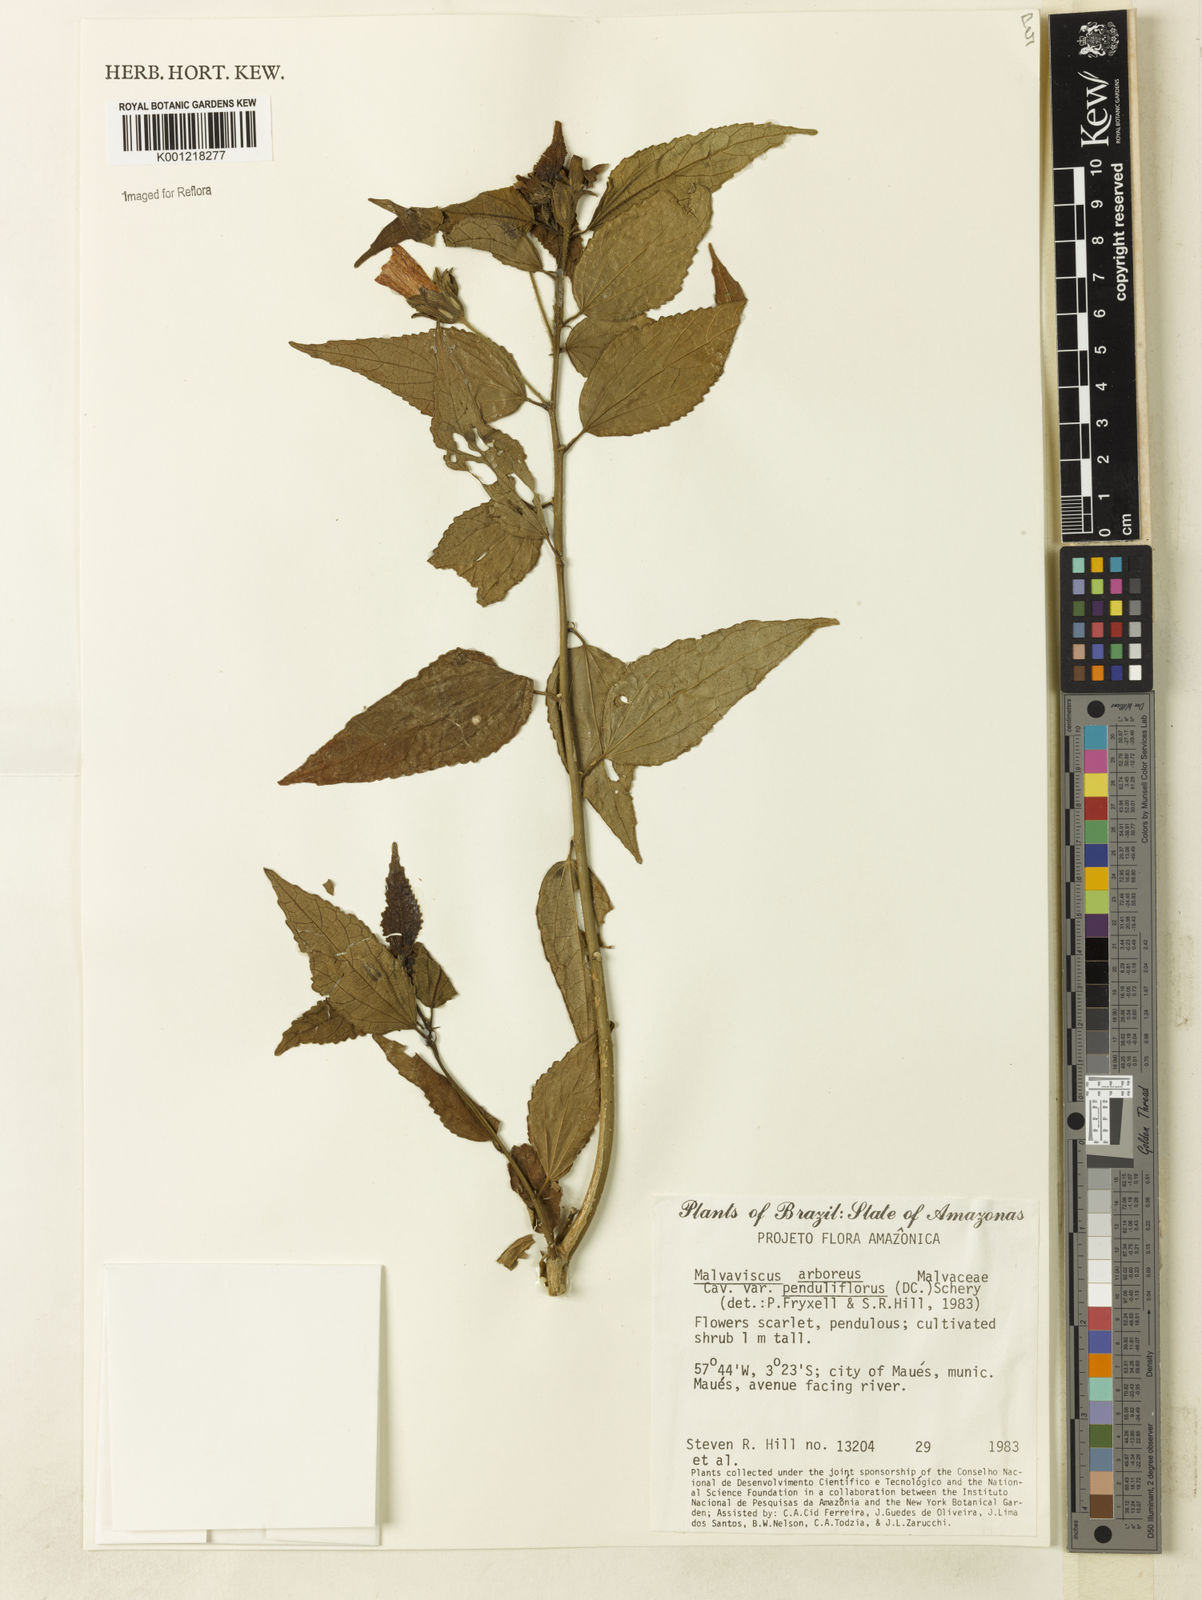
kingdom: Plantae
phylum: Tracheophyta
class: Magnoliopsida
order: Malvales
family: Malvaceae
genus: Malvaviscus
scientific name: Malvaviscus arboreus
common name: Wax mallow
